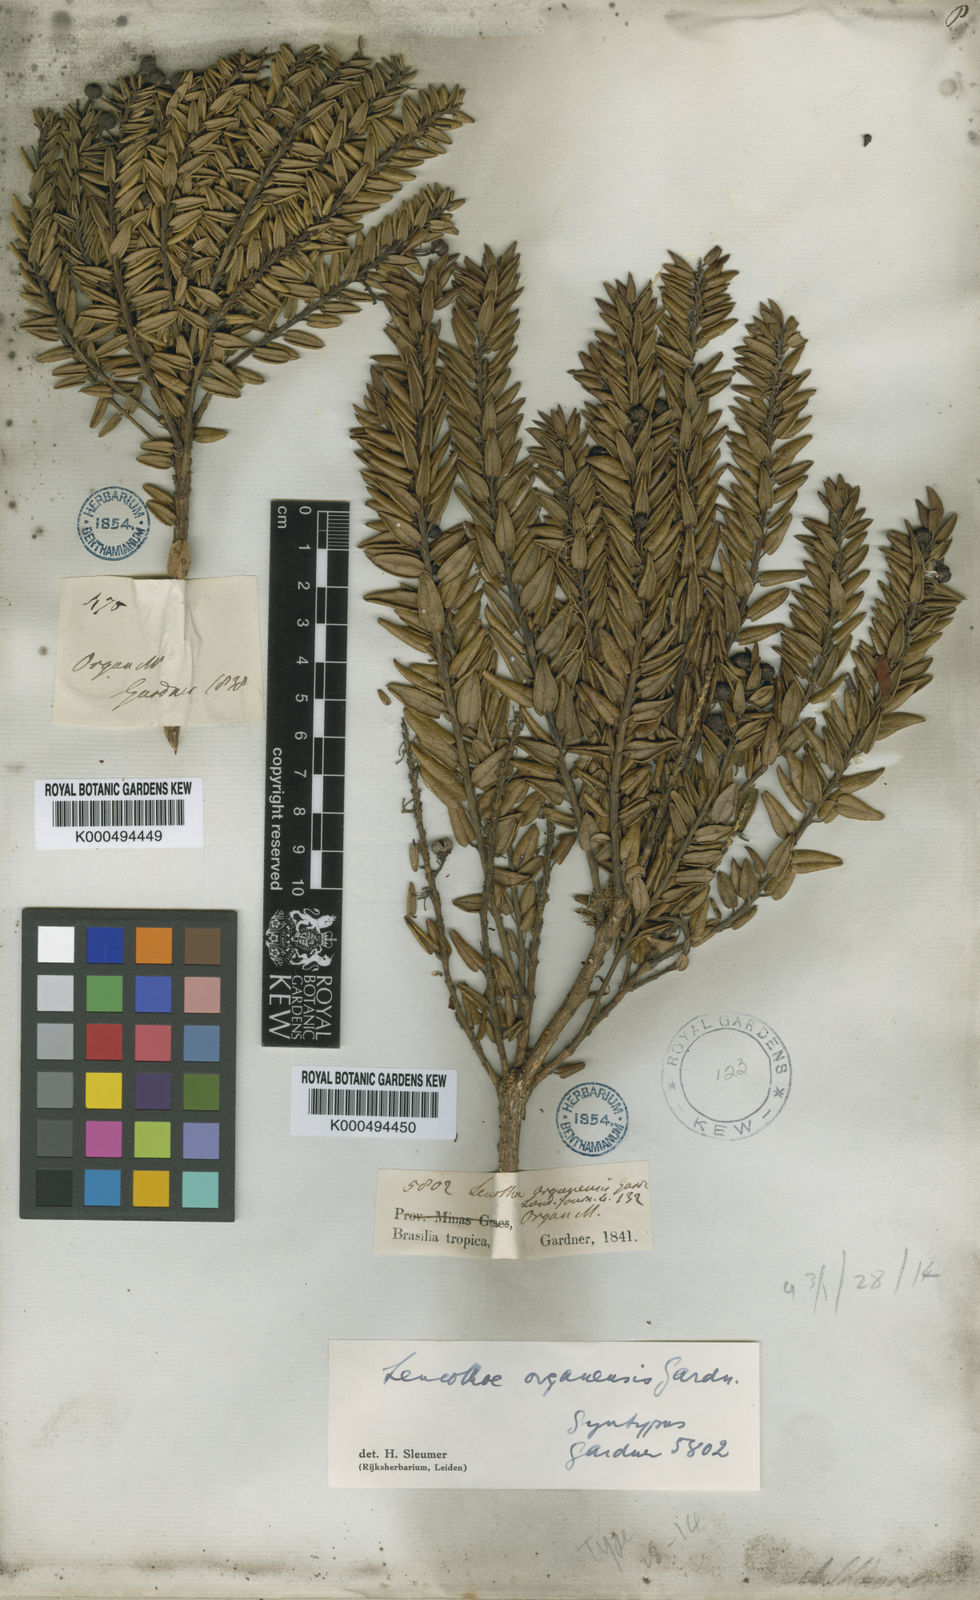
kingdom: Plantae
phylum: Tracheophyta
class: Magnoliopsida
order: Ericales
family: Ericaceae
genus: Agarista
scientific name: Agarista
